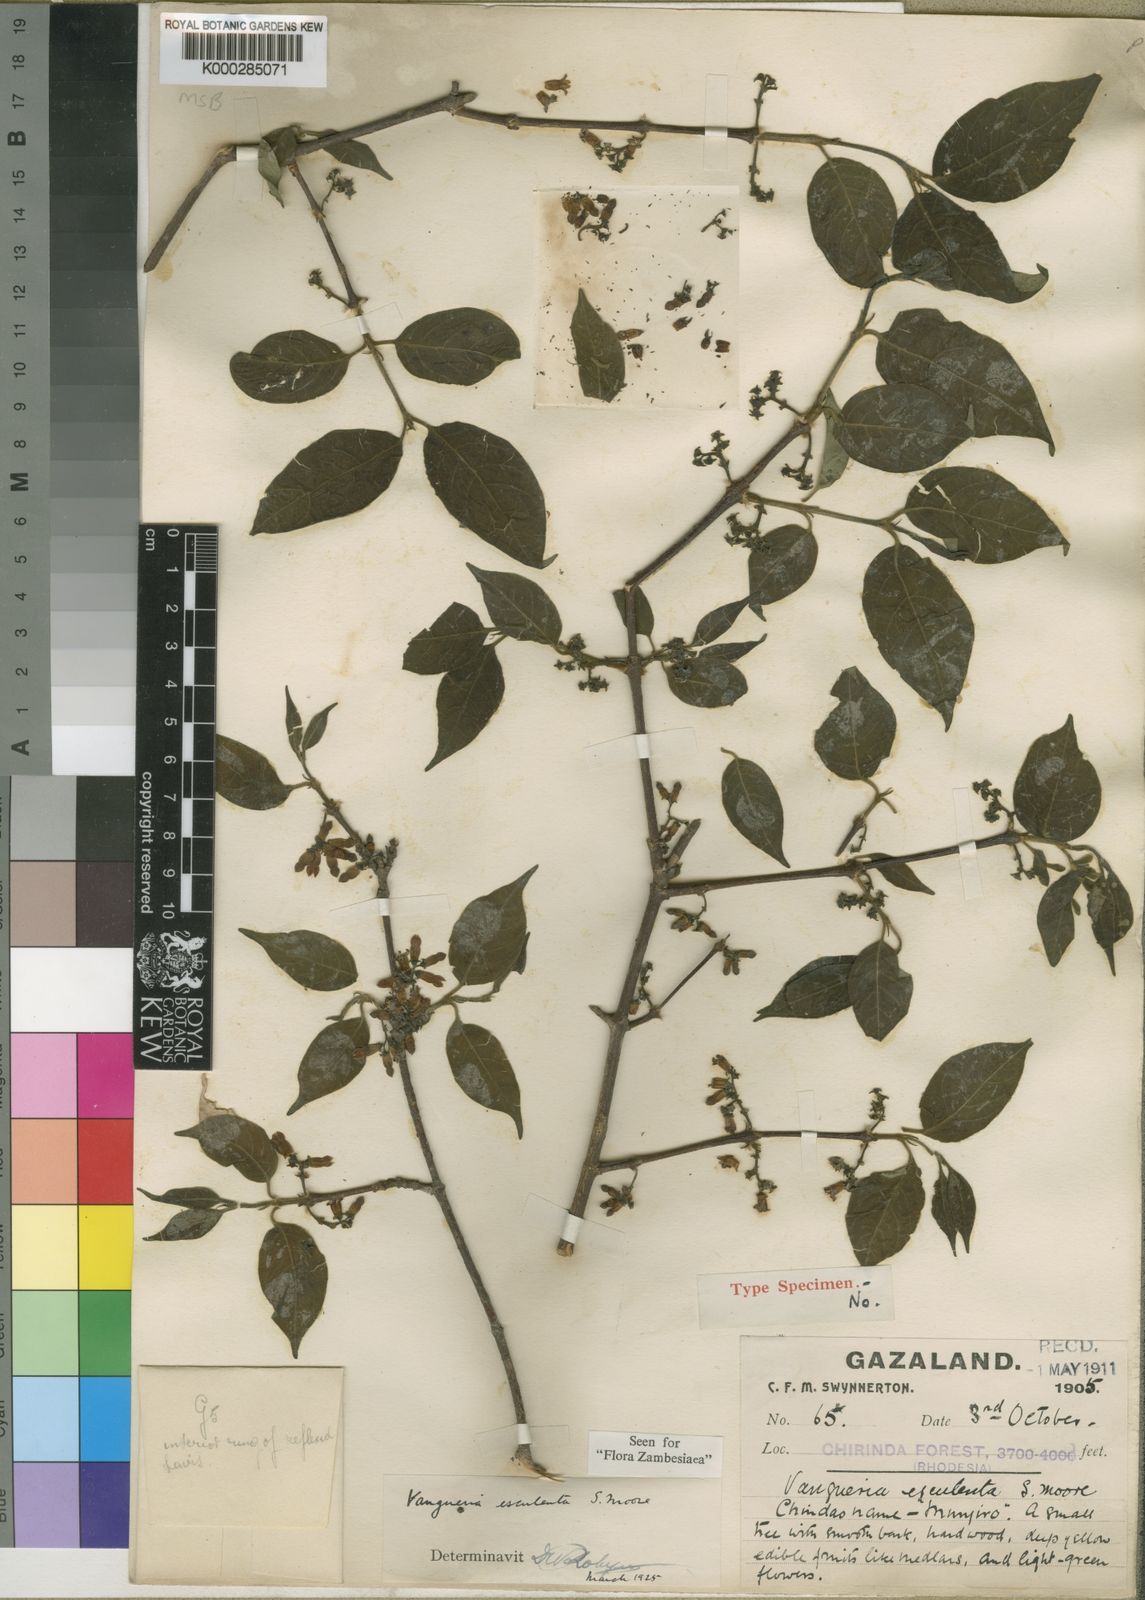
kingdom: Plantae
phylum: Tracheophyta
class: Magnoliopsida
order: Gentianales
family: Rubiaceae
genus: Vangueria
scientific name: Vangueria esculenta
